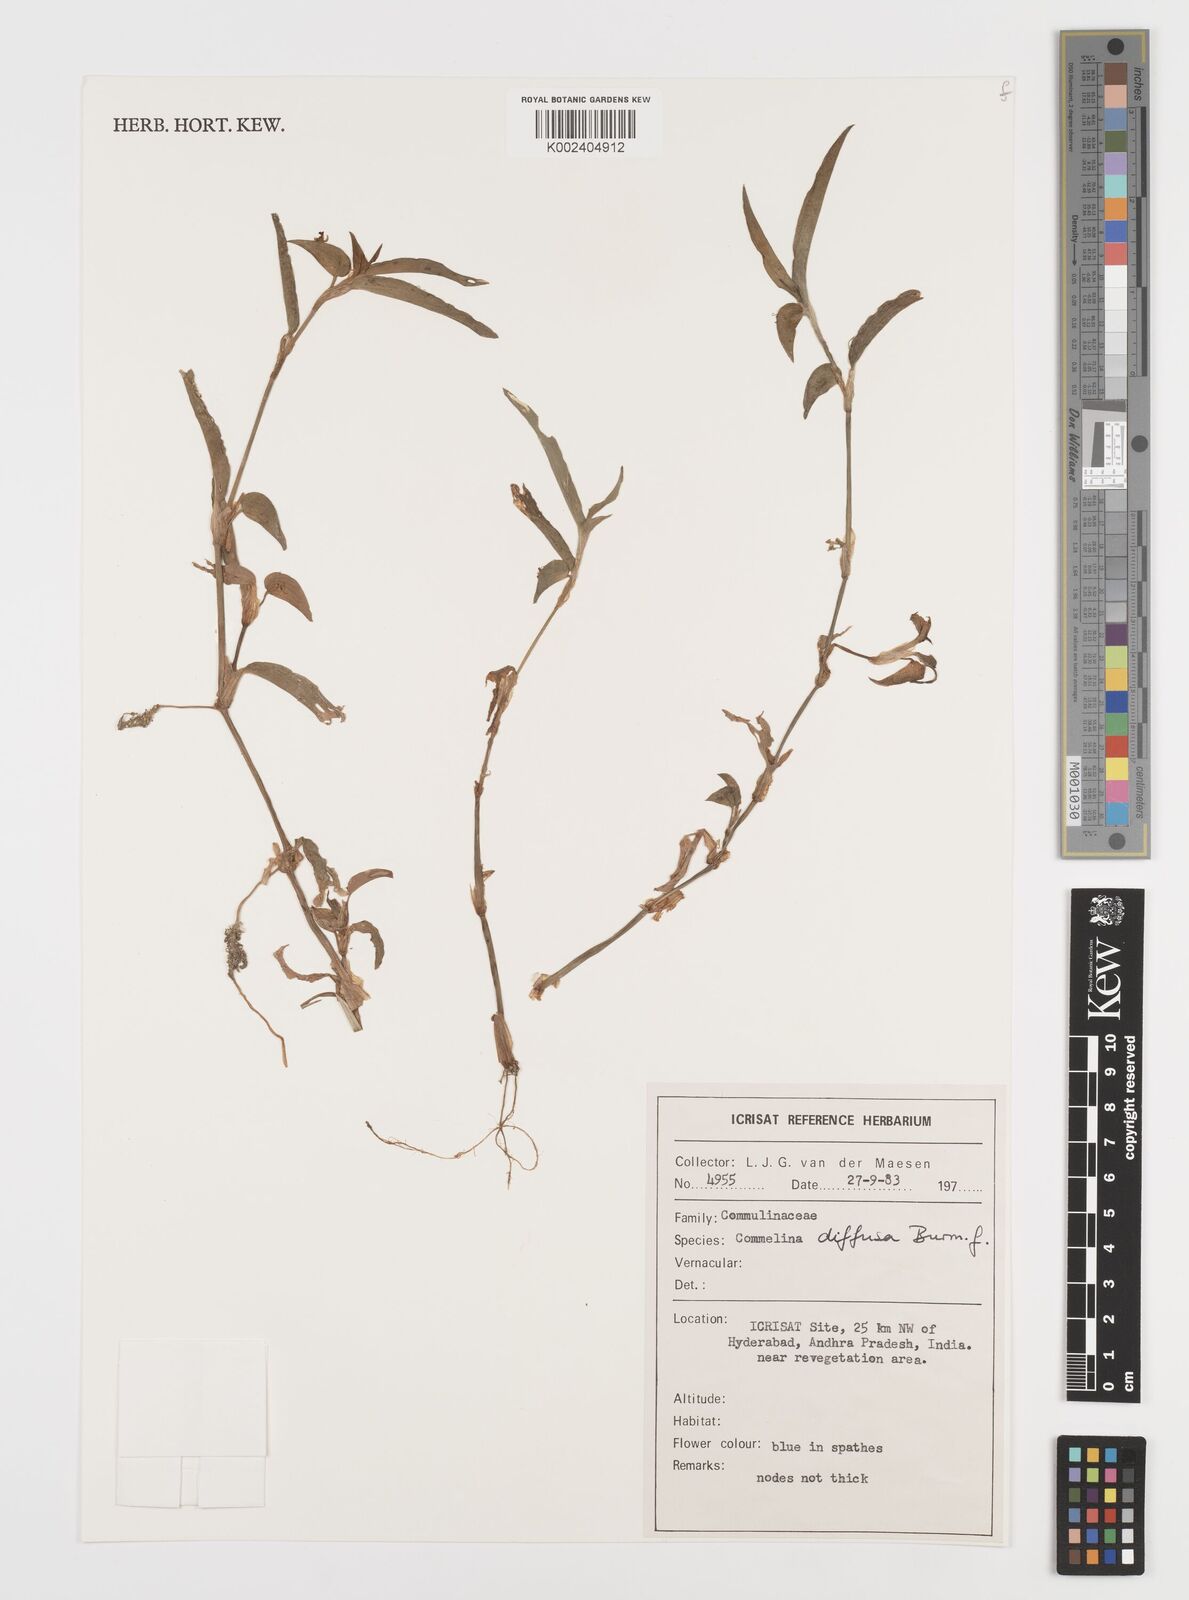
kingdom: Plantae
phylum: Tracheophyta
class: Liliopsida
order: Commelinales
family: Commelinaceae
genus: Commelina
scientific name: Commelina diffusa
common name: Climbing dayflower
